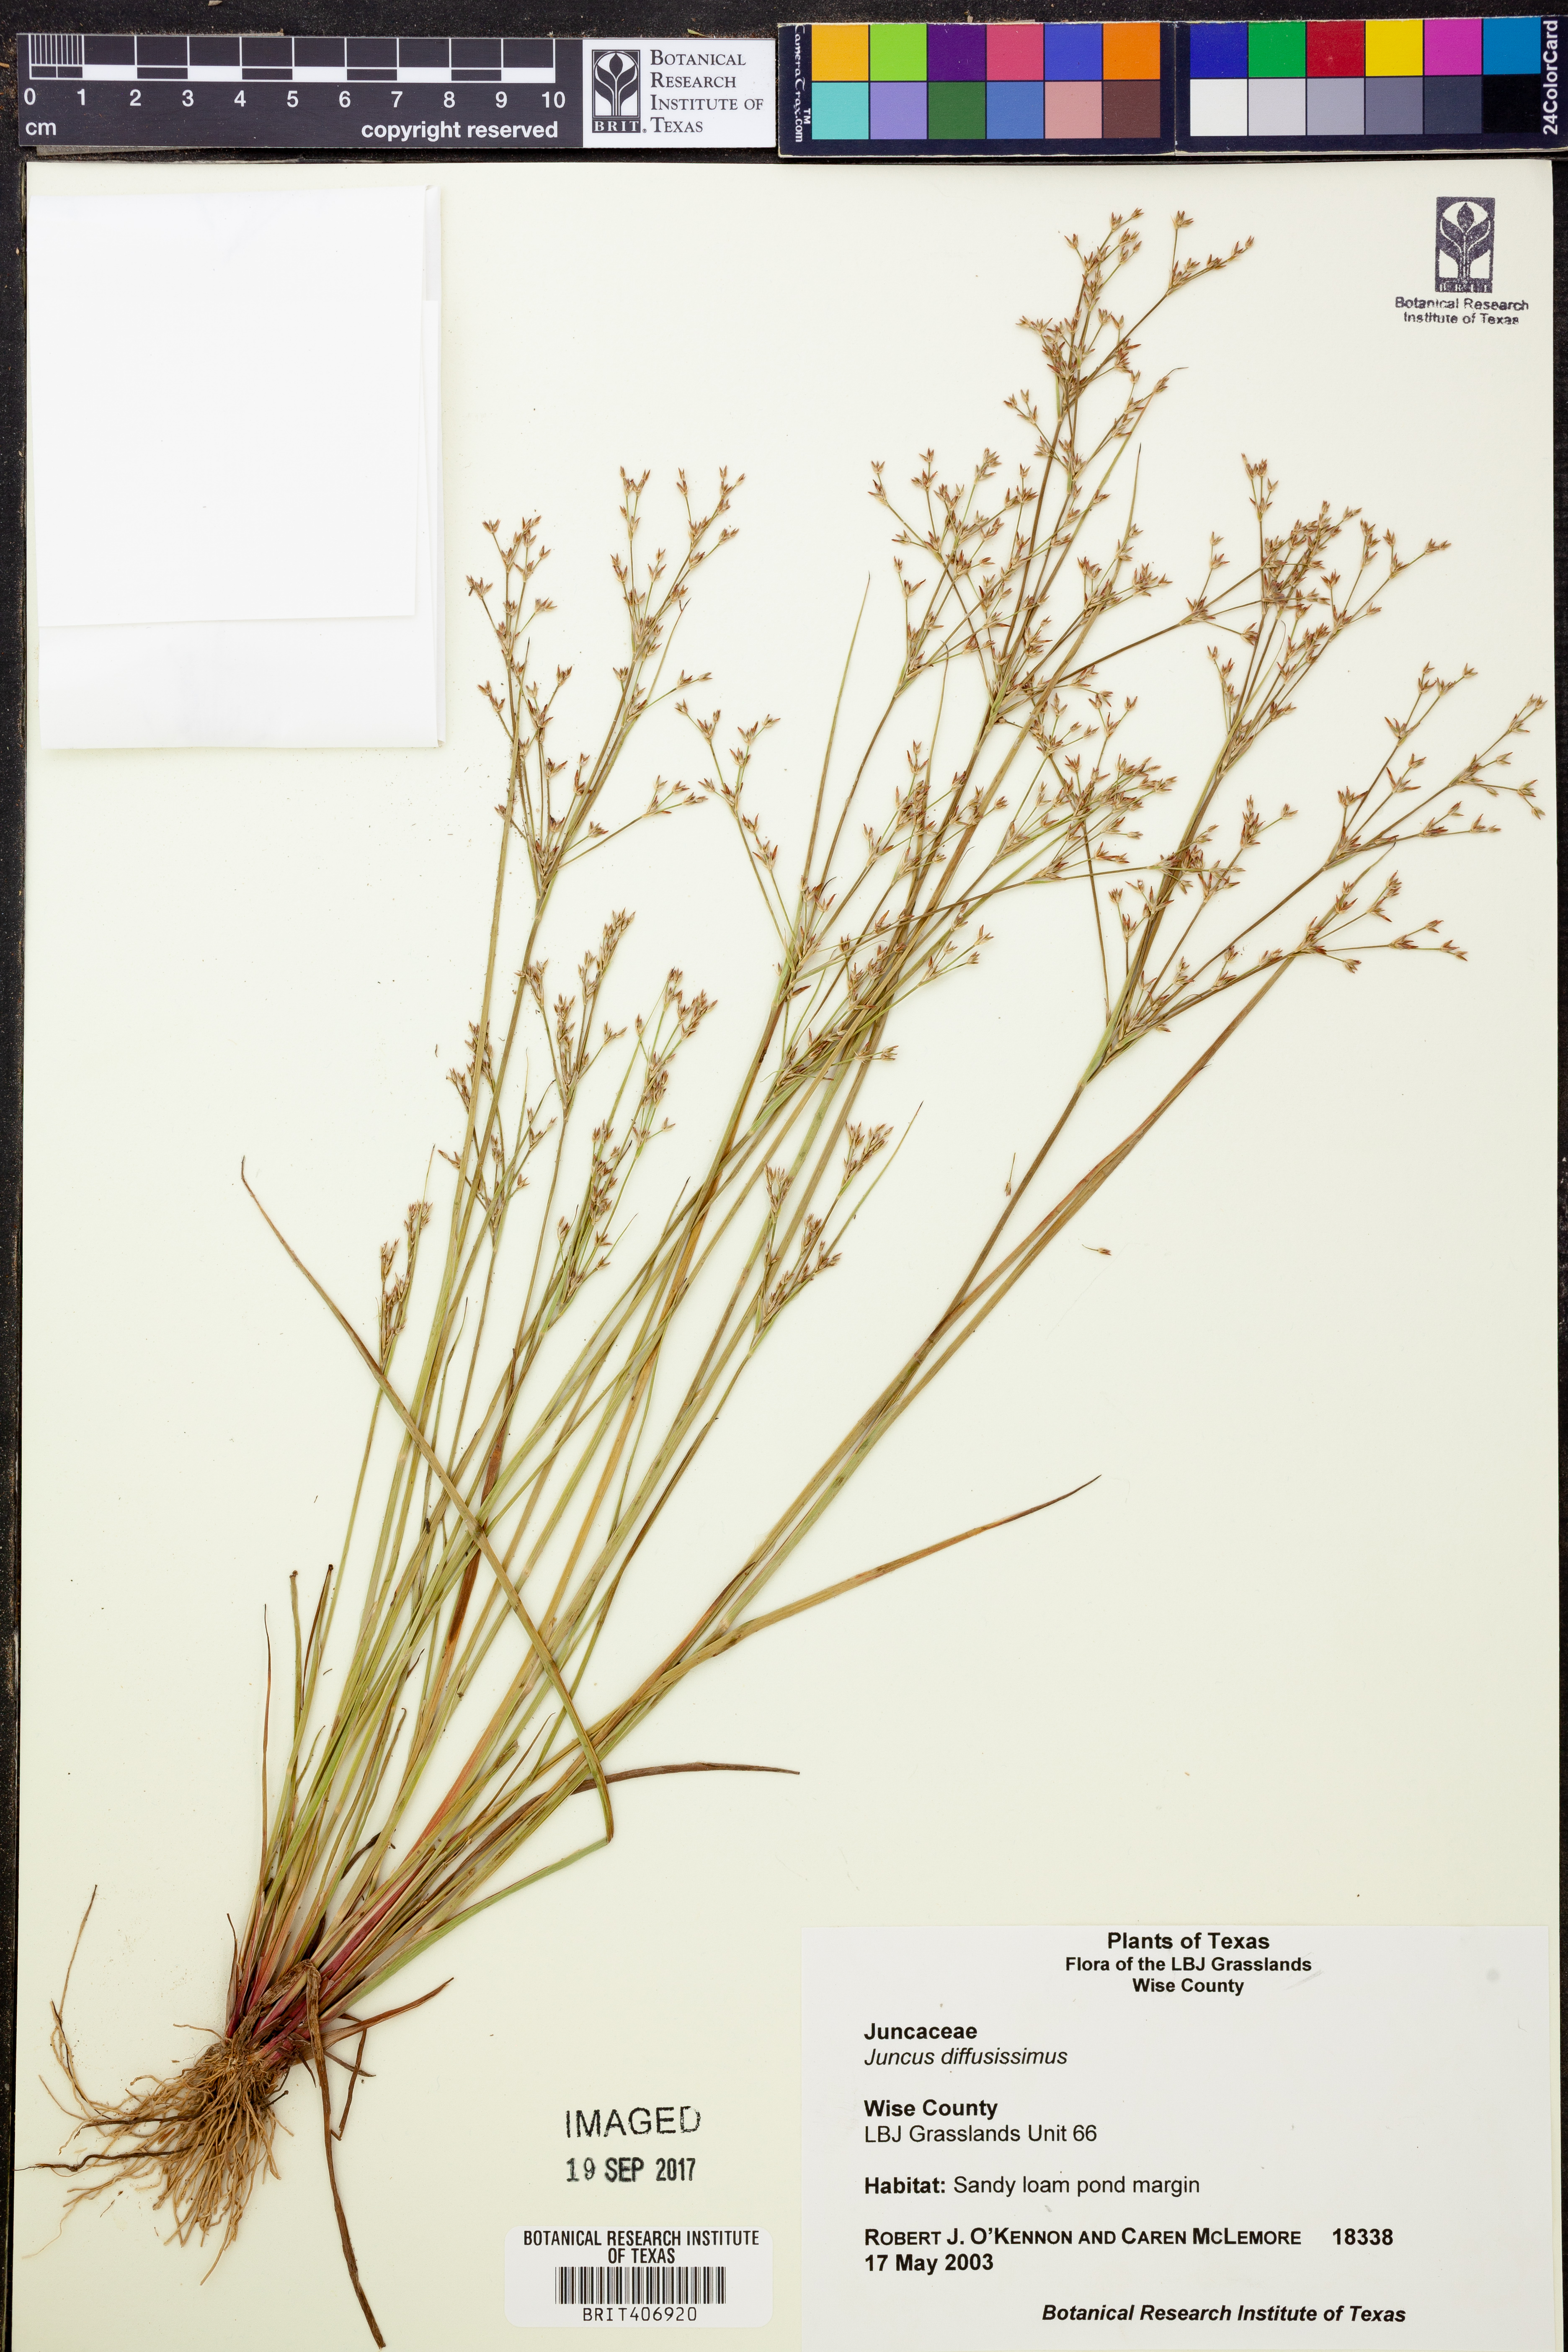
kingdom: Plantae
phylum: Tracheophyta
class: Liliopsida
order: Poales
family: Juncaceae
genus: Juncus
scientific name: Juncus diffusissimus
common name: Slimpod rush
